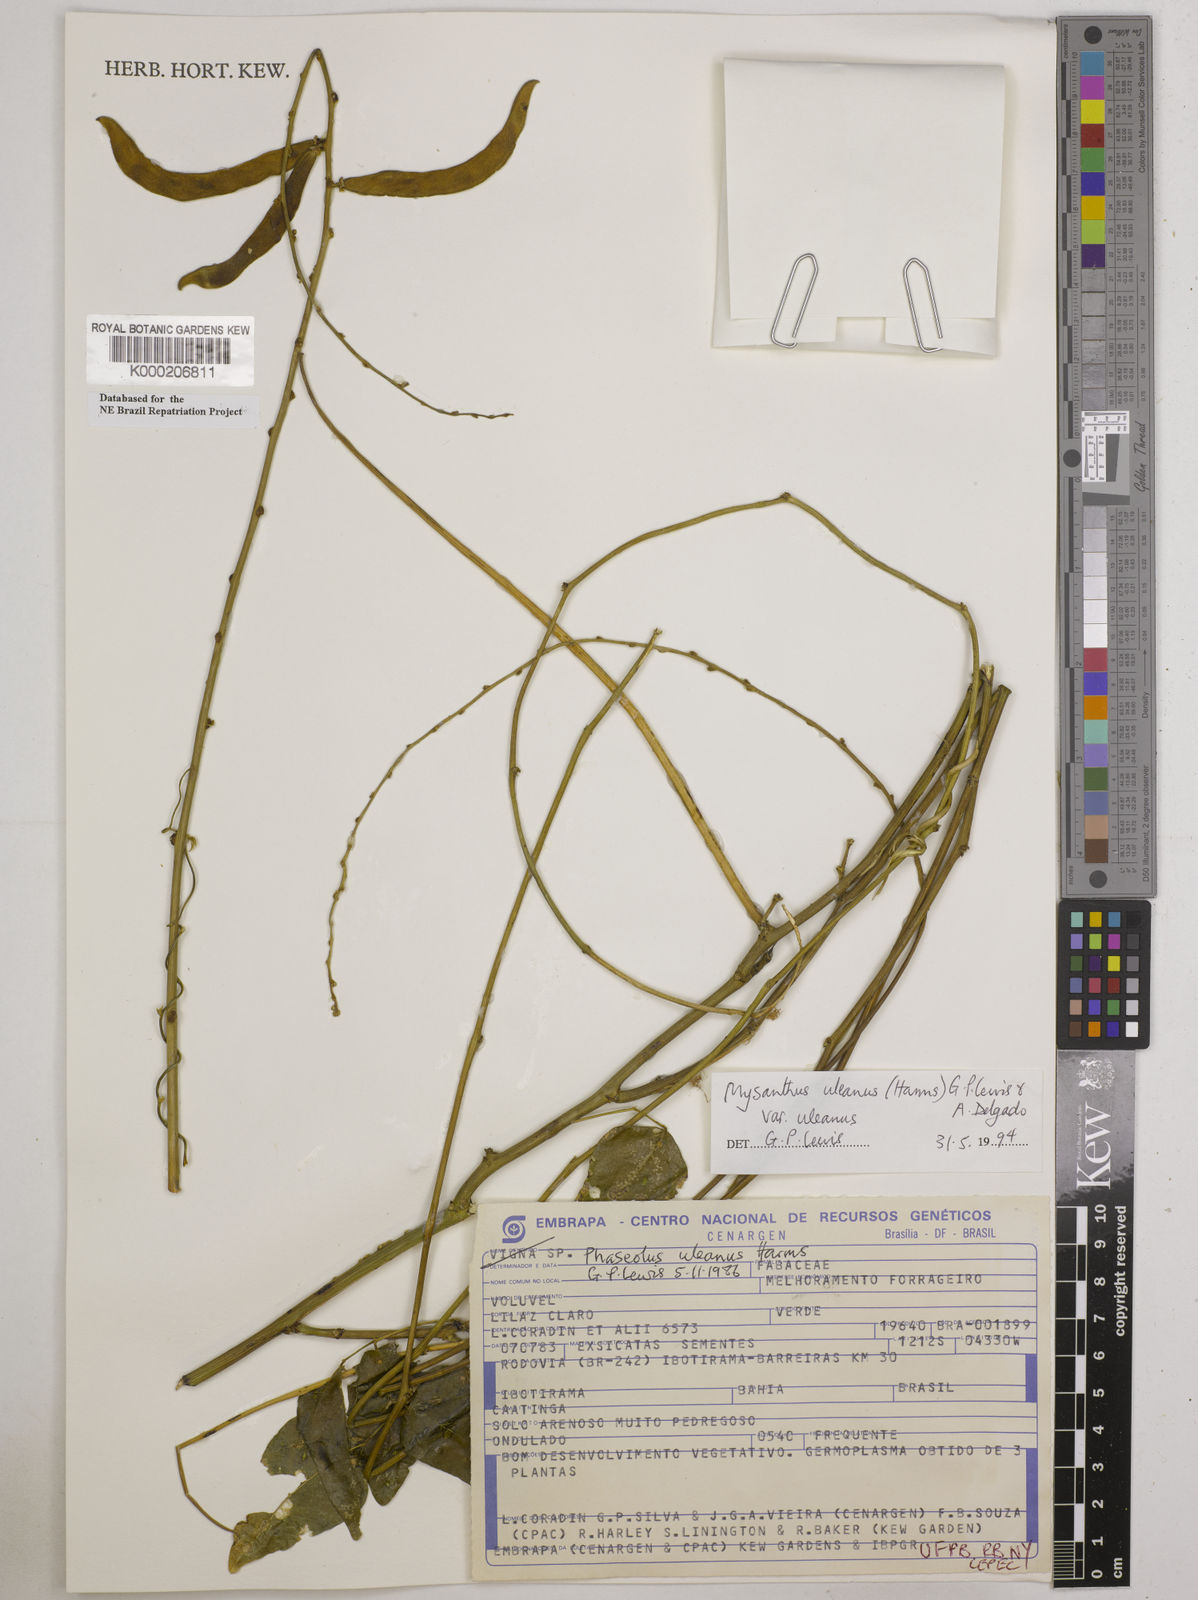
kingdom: Plantae
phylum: Tracheophyta
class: Magnoliopsida
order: Fabales
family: Fabaceae
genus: Mysanthus
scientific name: Mysanthus uleanus
